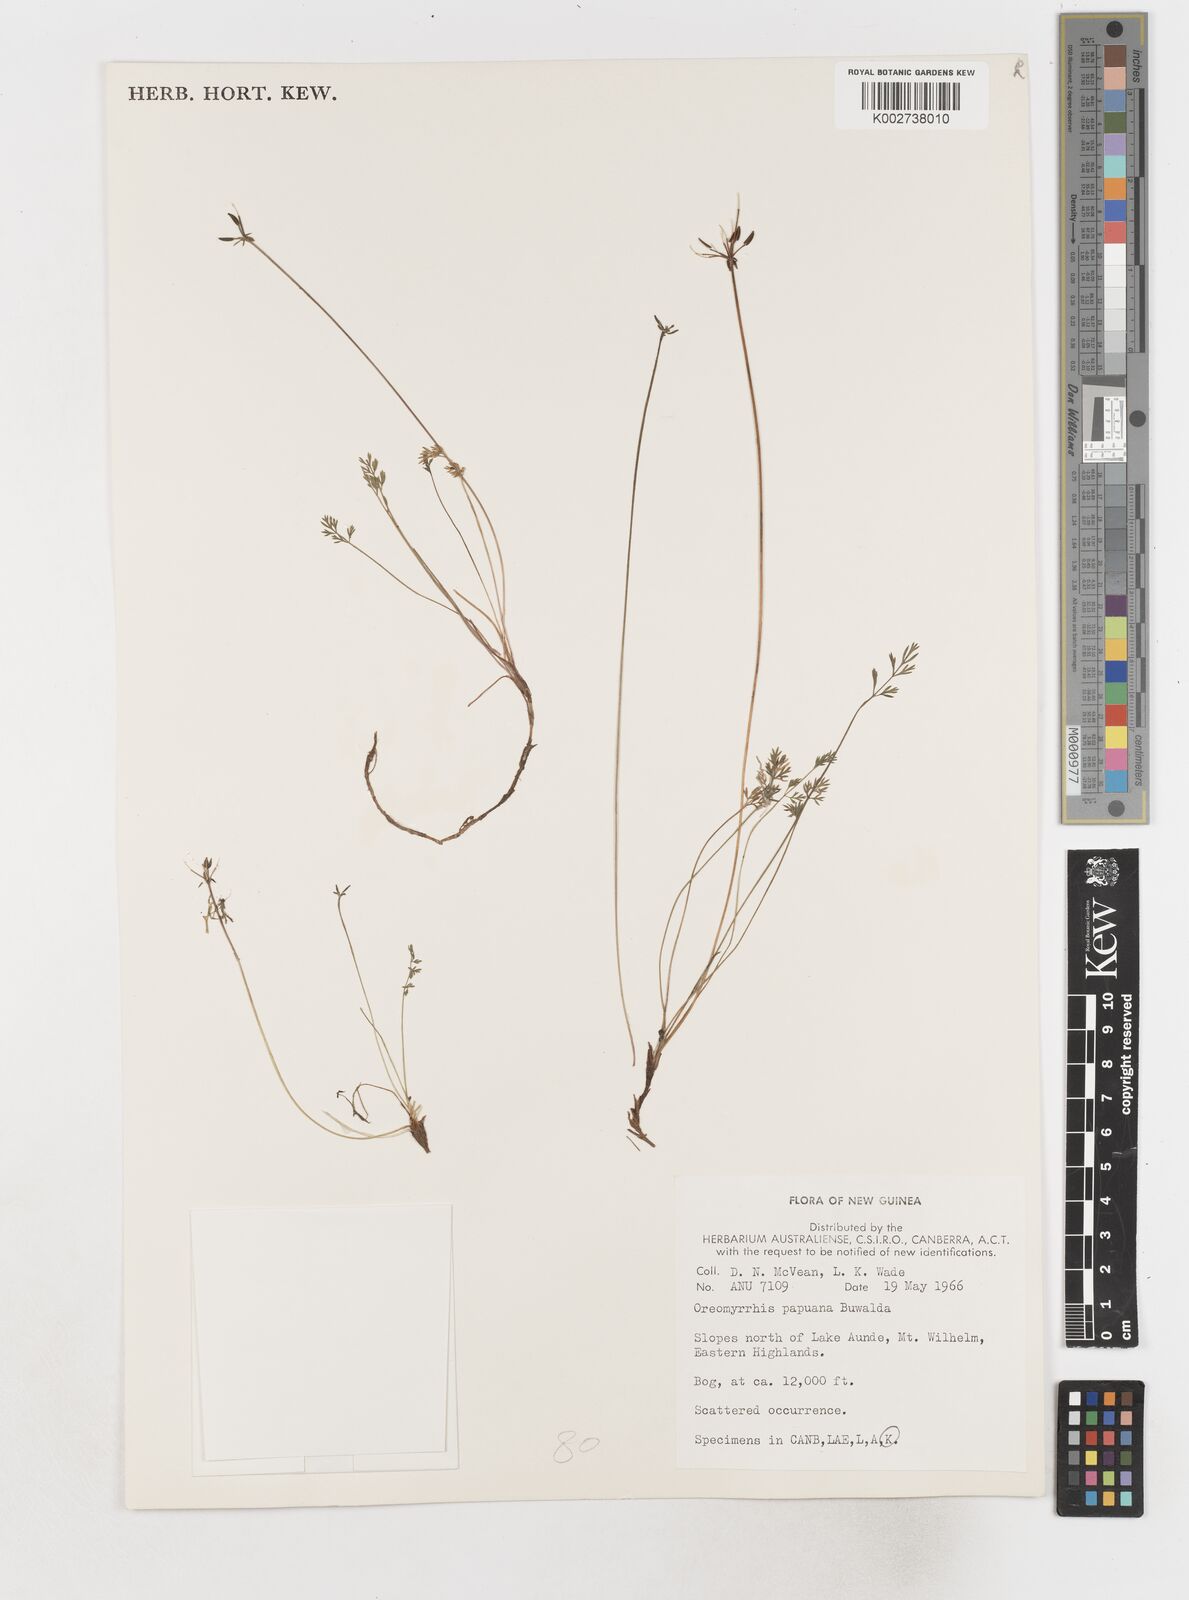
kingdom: Plantae
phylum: Tracheophyta
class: Magnoliopsida
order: Apiales
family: Apiaceae
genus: Chaerophyllum
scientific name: Chaerophyllum papuanum
